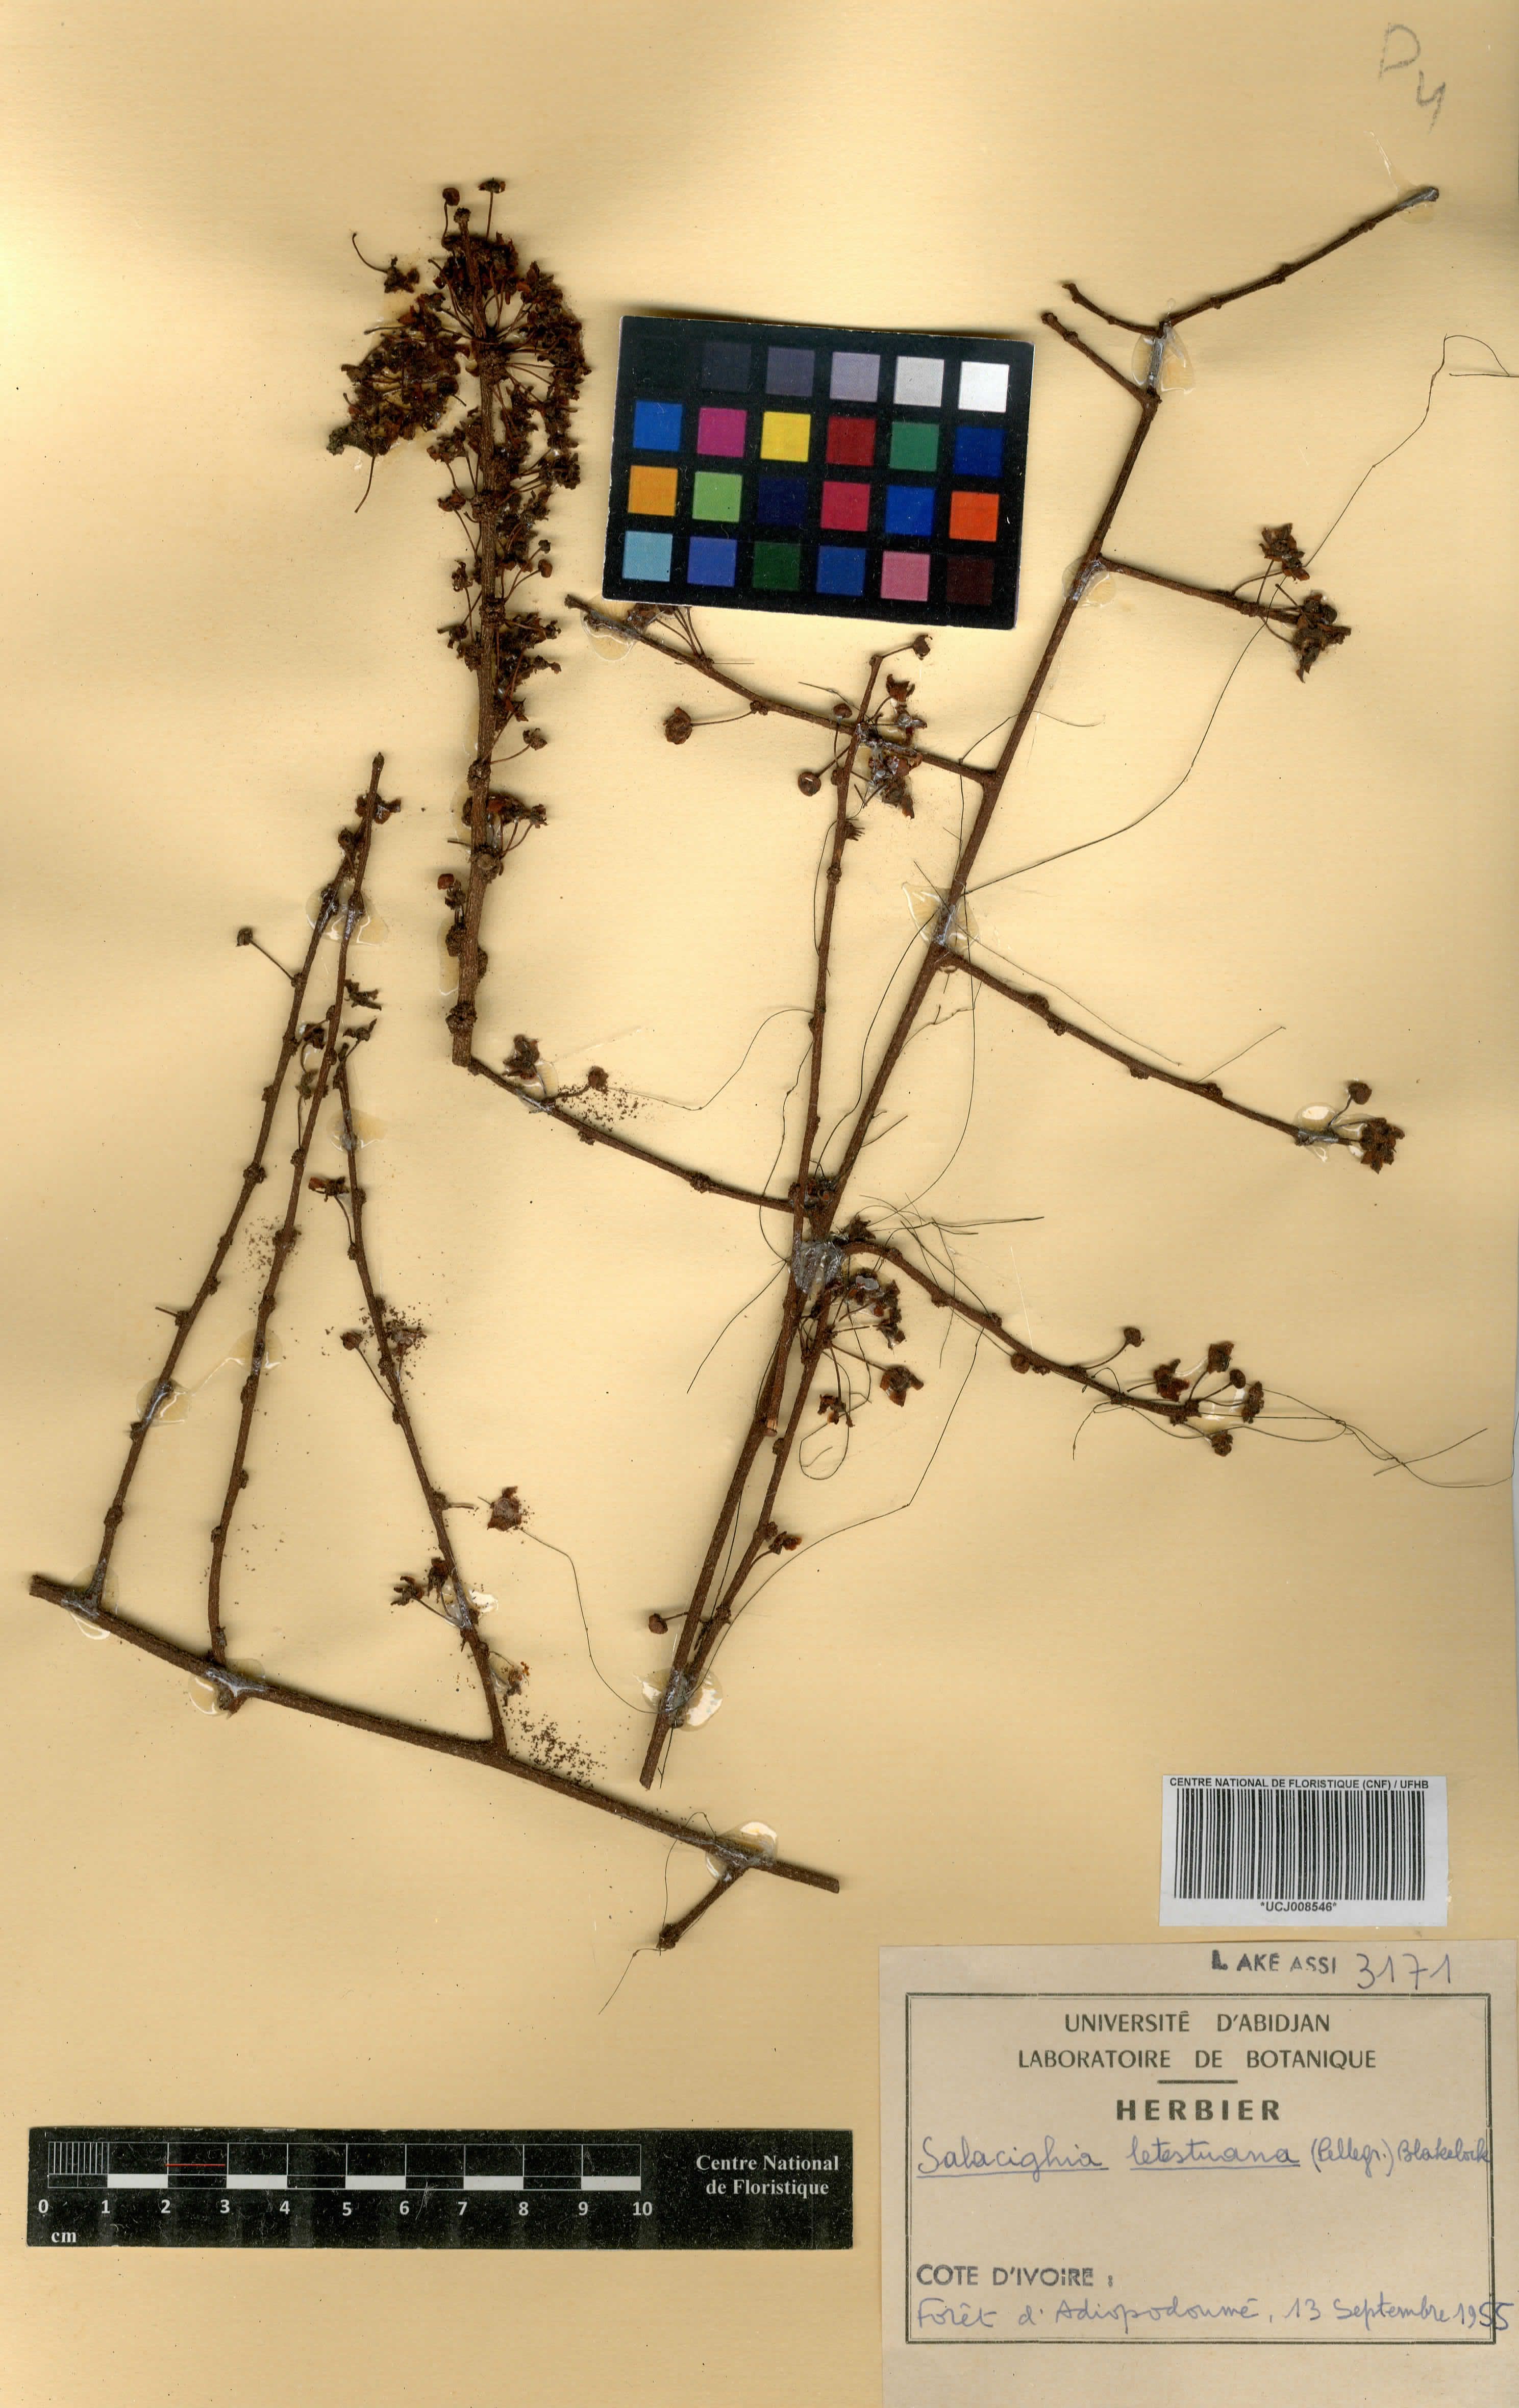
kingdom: Plantae
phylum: Tracheophyta
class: Magnoliopsida
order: Celastrales
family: Celastraceae
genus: Salacighia
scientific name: Salacighia letestuana
